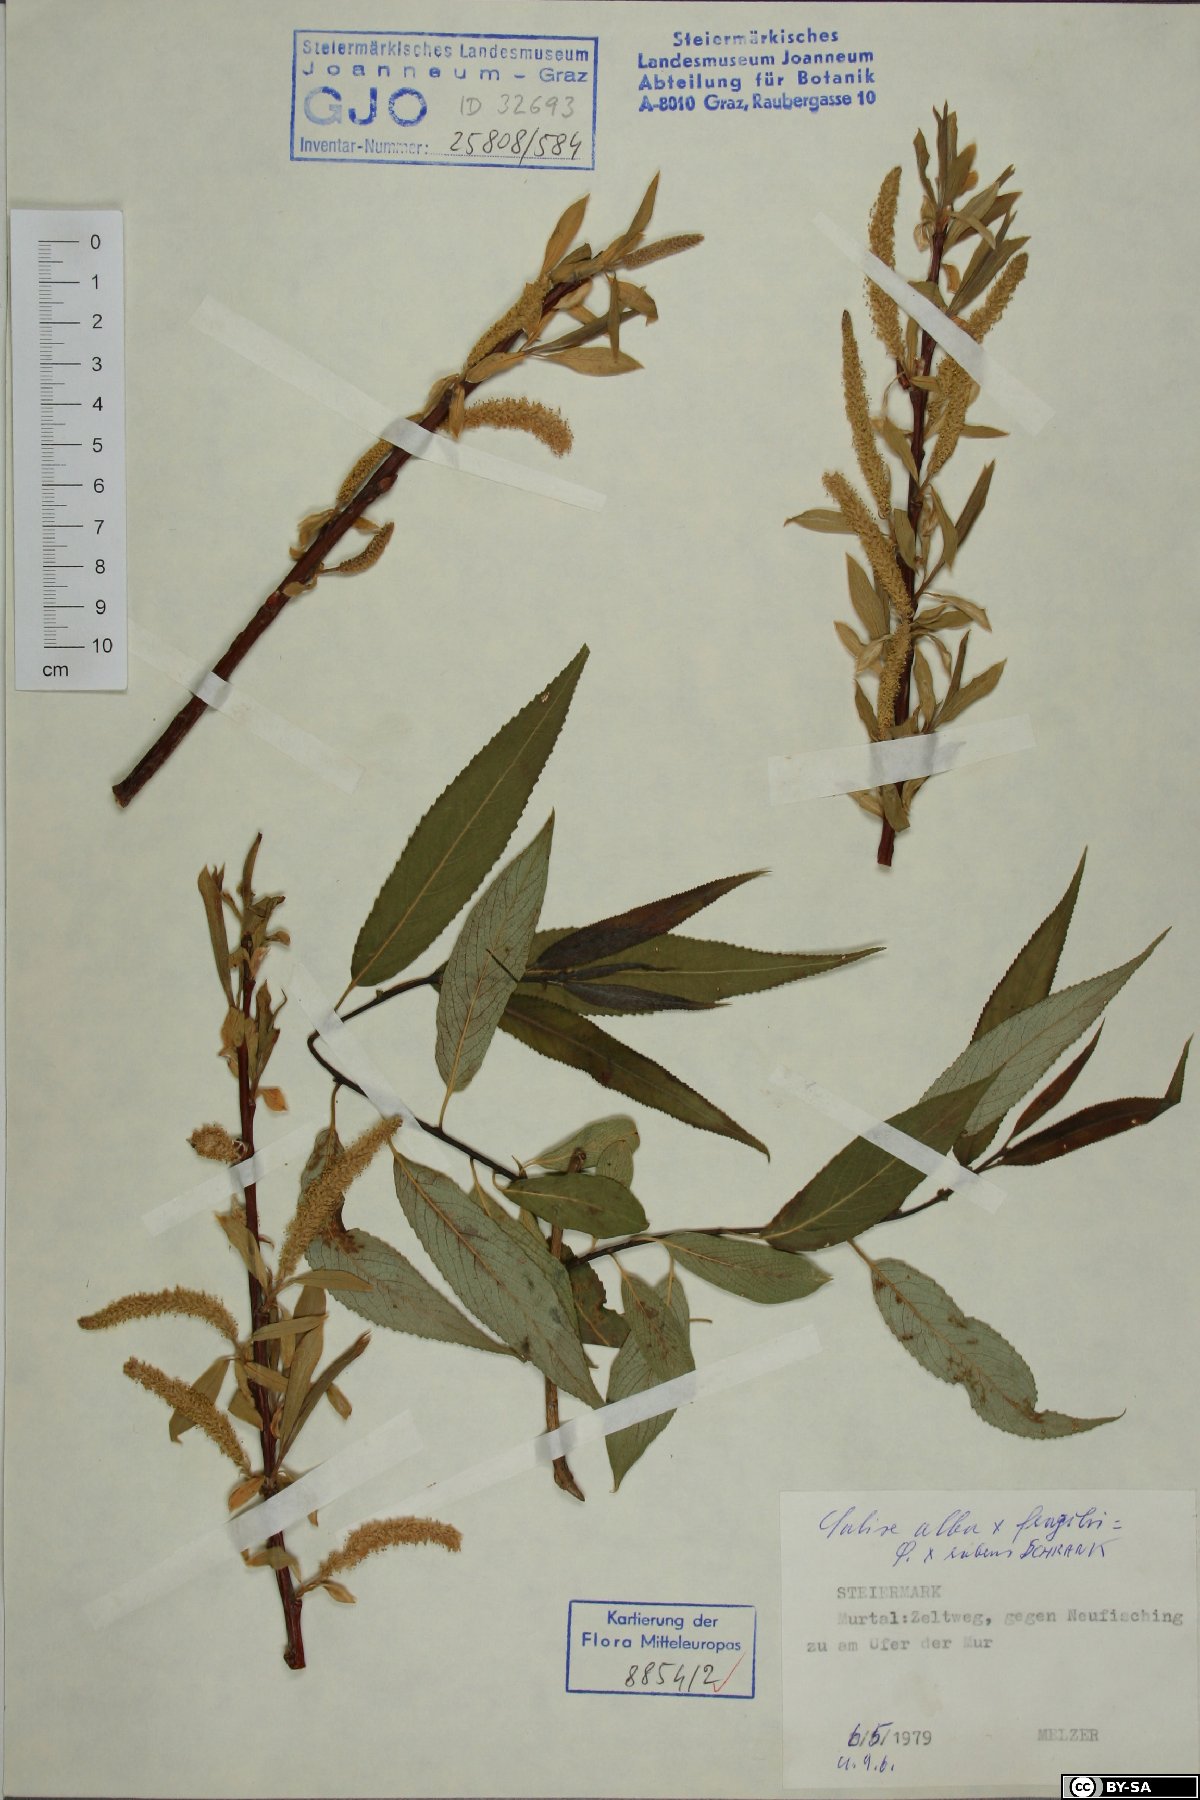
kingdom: Plantae
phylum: Tracheophyta
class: Magnoliopsida
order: Malpighiales
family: Salicaceae
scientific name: Salicaceae
